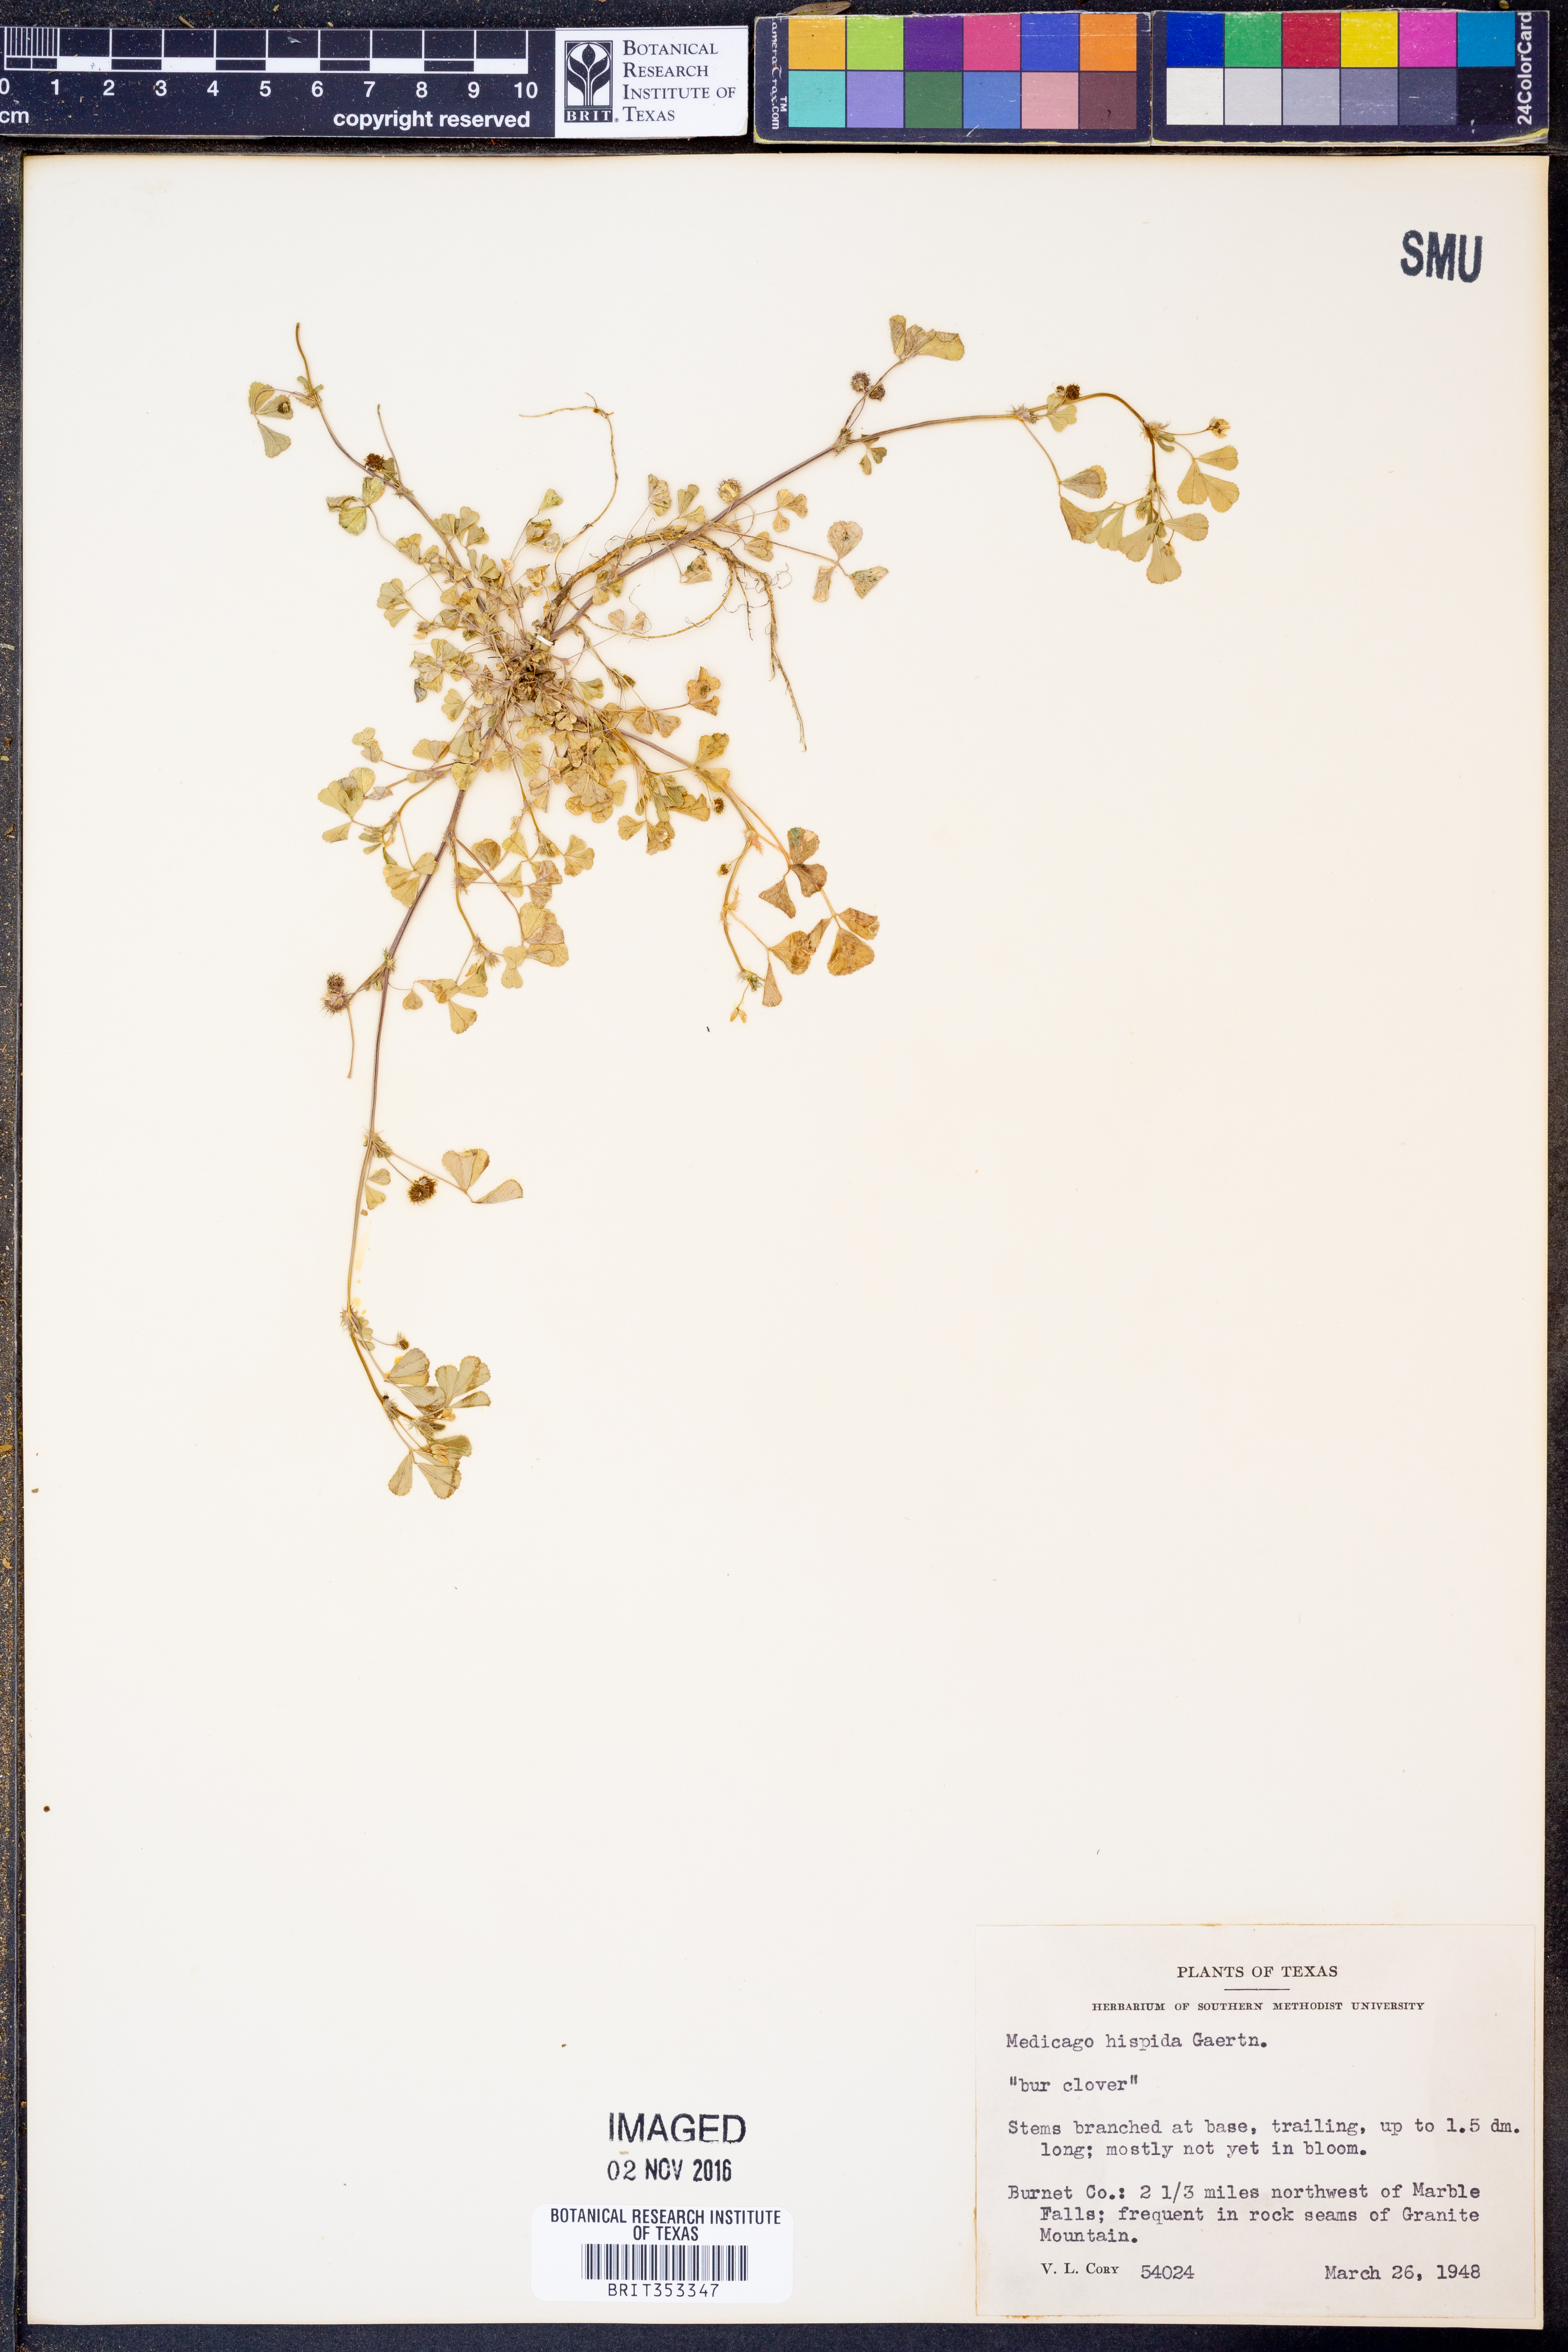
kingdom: Plantae
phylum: Tracheophyta
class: Magnoliopsida
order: Fabales
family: Fabaceae
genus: Medicago
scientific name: Medicago polymorpha
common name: Burclover
